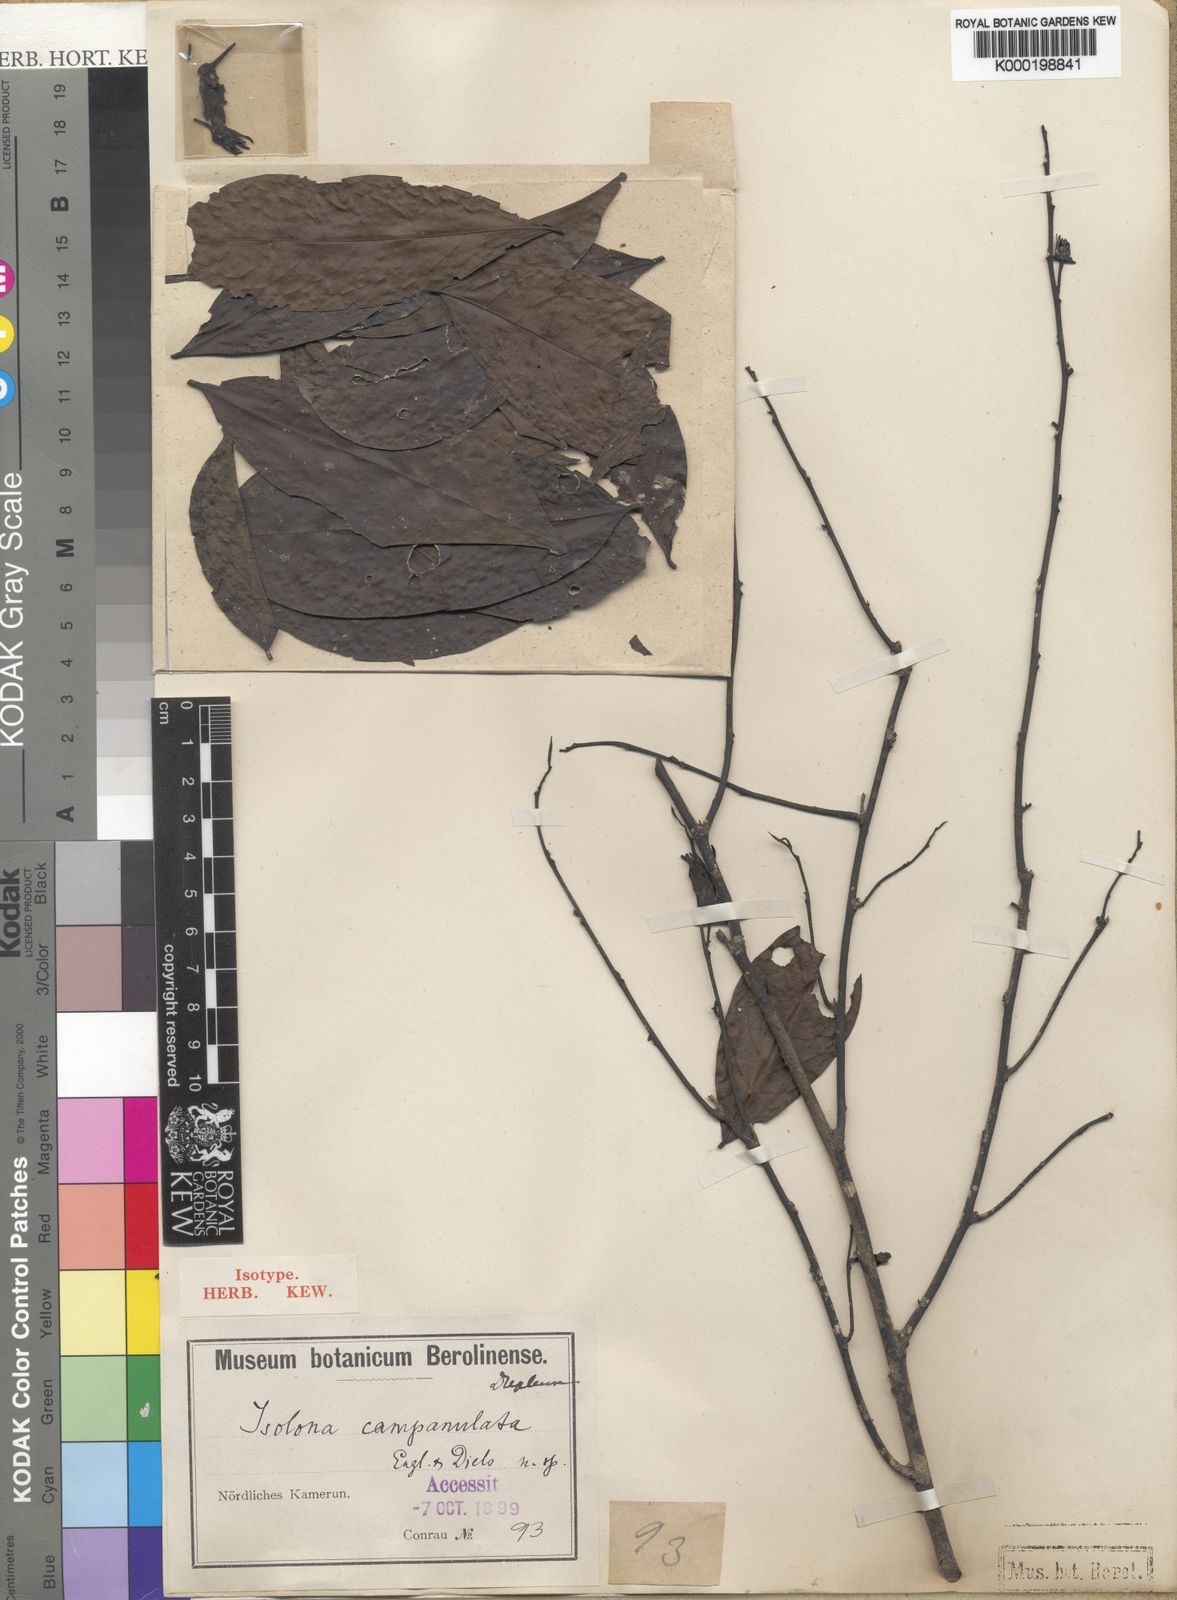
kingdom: Plantae
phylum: Tracheophyta
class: Magnoliopsida
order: Magnoliales
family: Annonaceae
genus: Isolona
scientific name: Isolona campanulata
